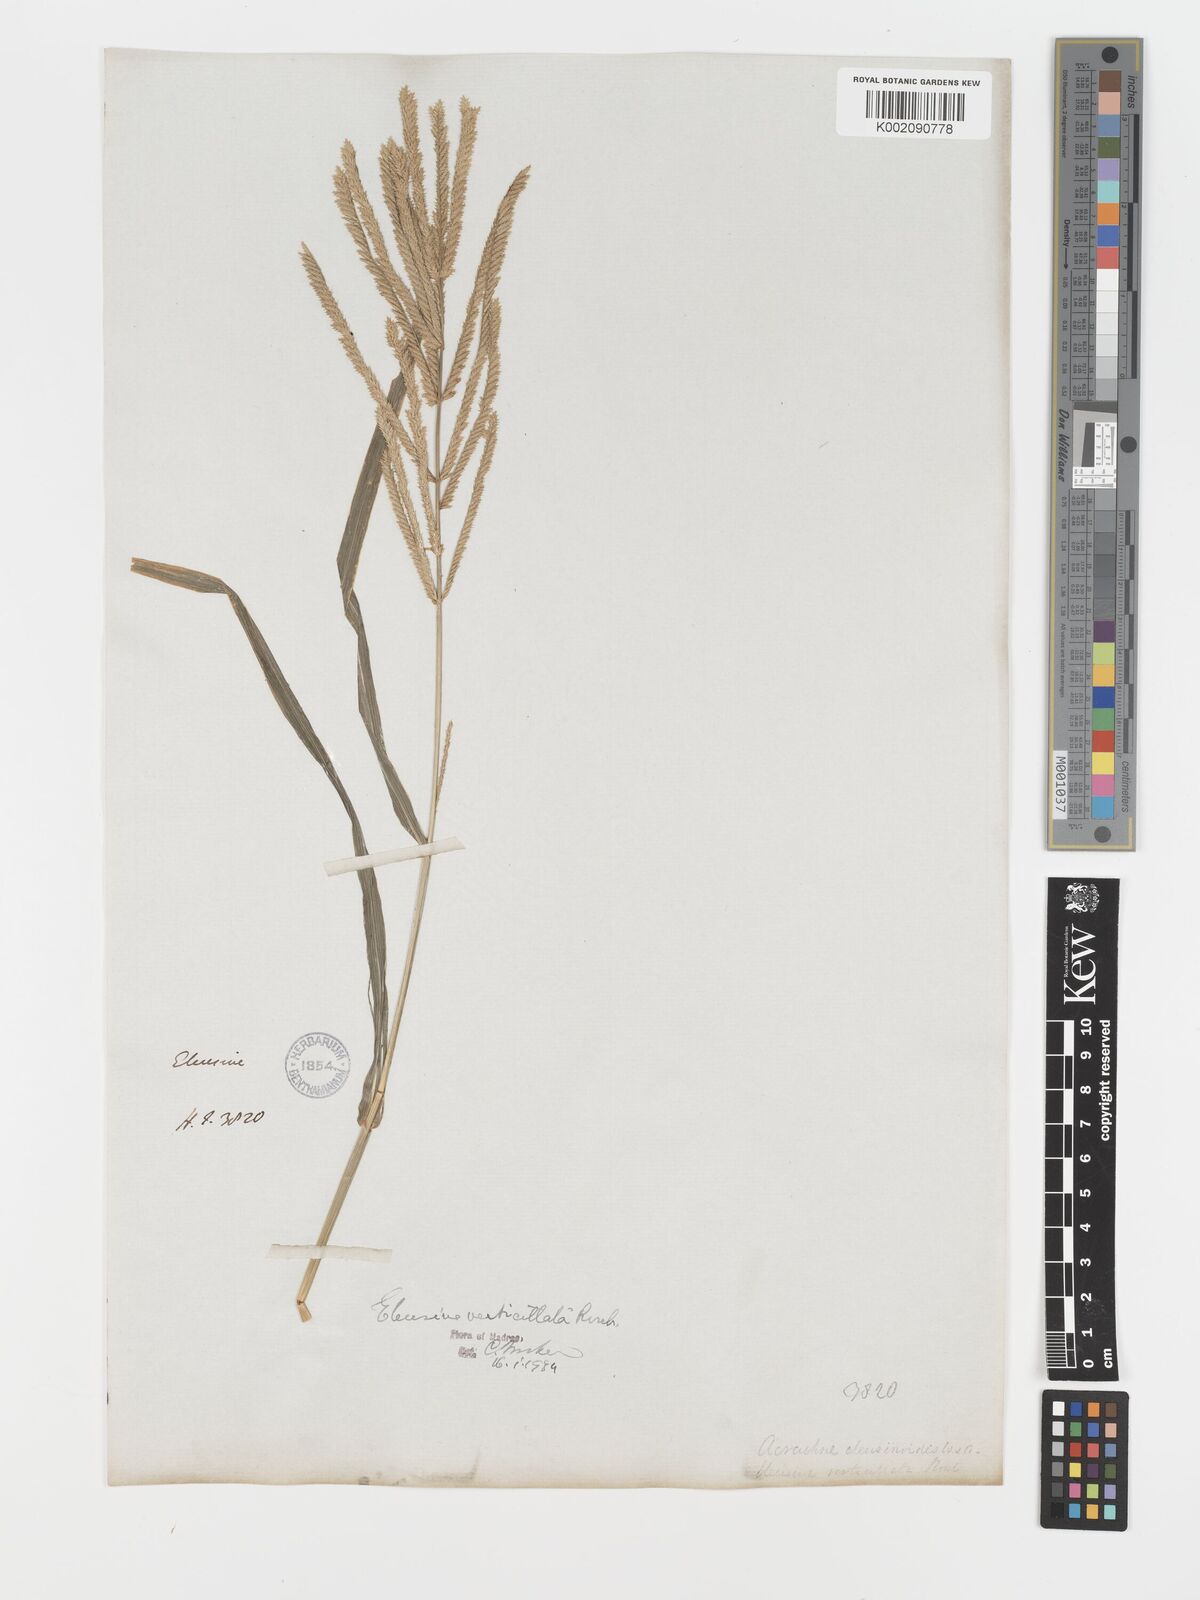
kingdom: Plantae
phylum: Tracheophyta
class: Liliopsida
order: Poales
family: Poaceae
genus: Acrachne
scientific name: Acrachne racemosa
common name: Goosegrass
